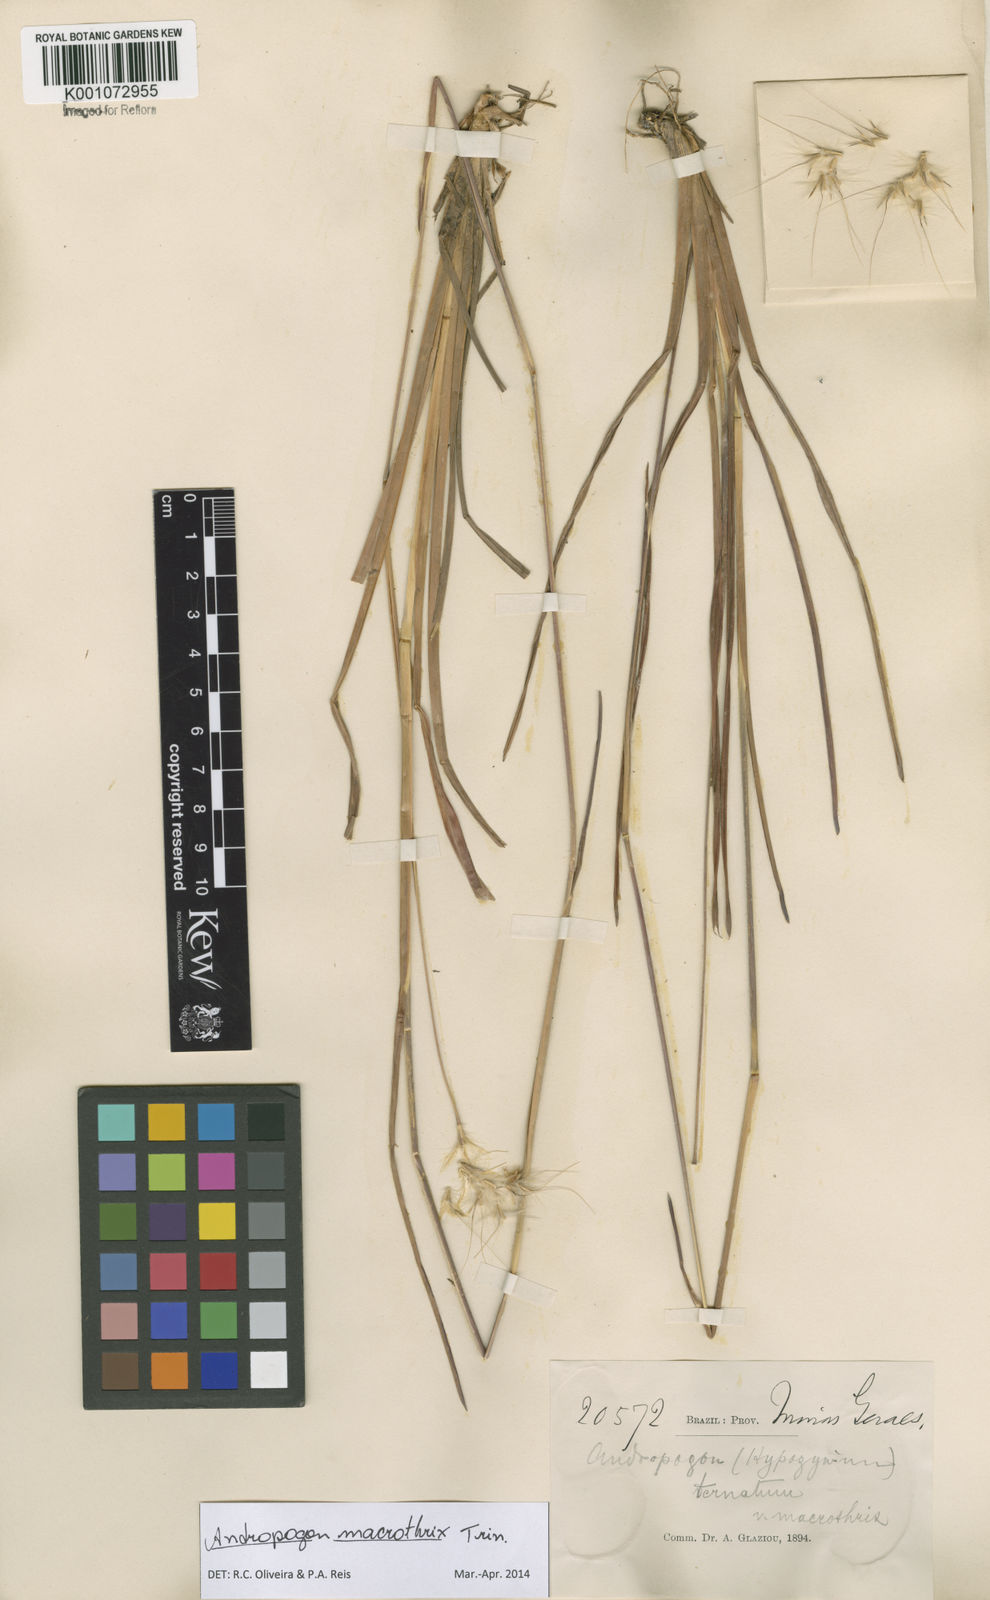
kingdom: Plantae
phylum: Tracheophyta
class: Liliopsida
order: Poales
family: Poaceae
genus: Andropogon
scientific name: Andropogon macrothrix
